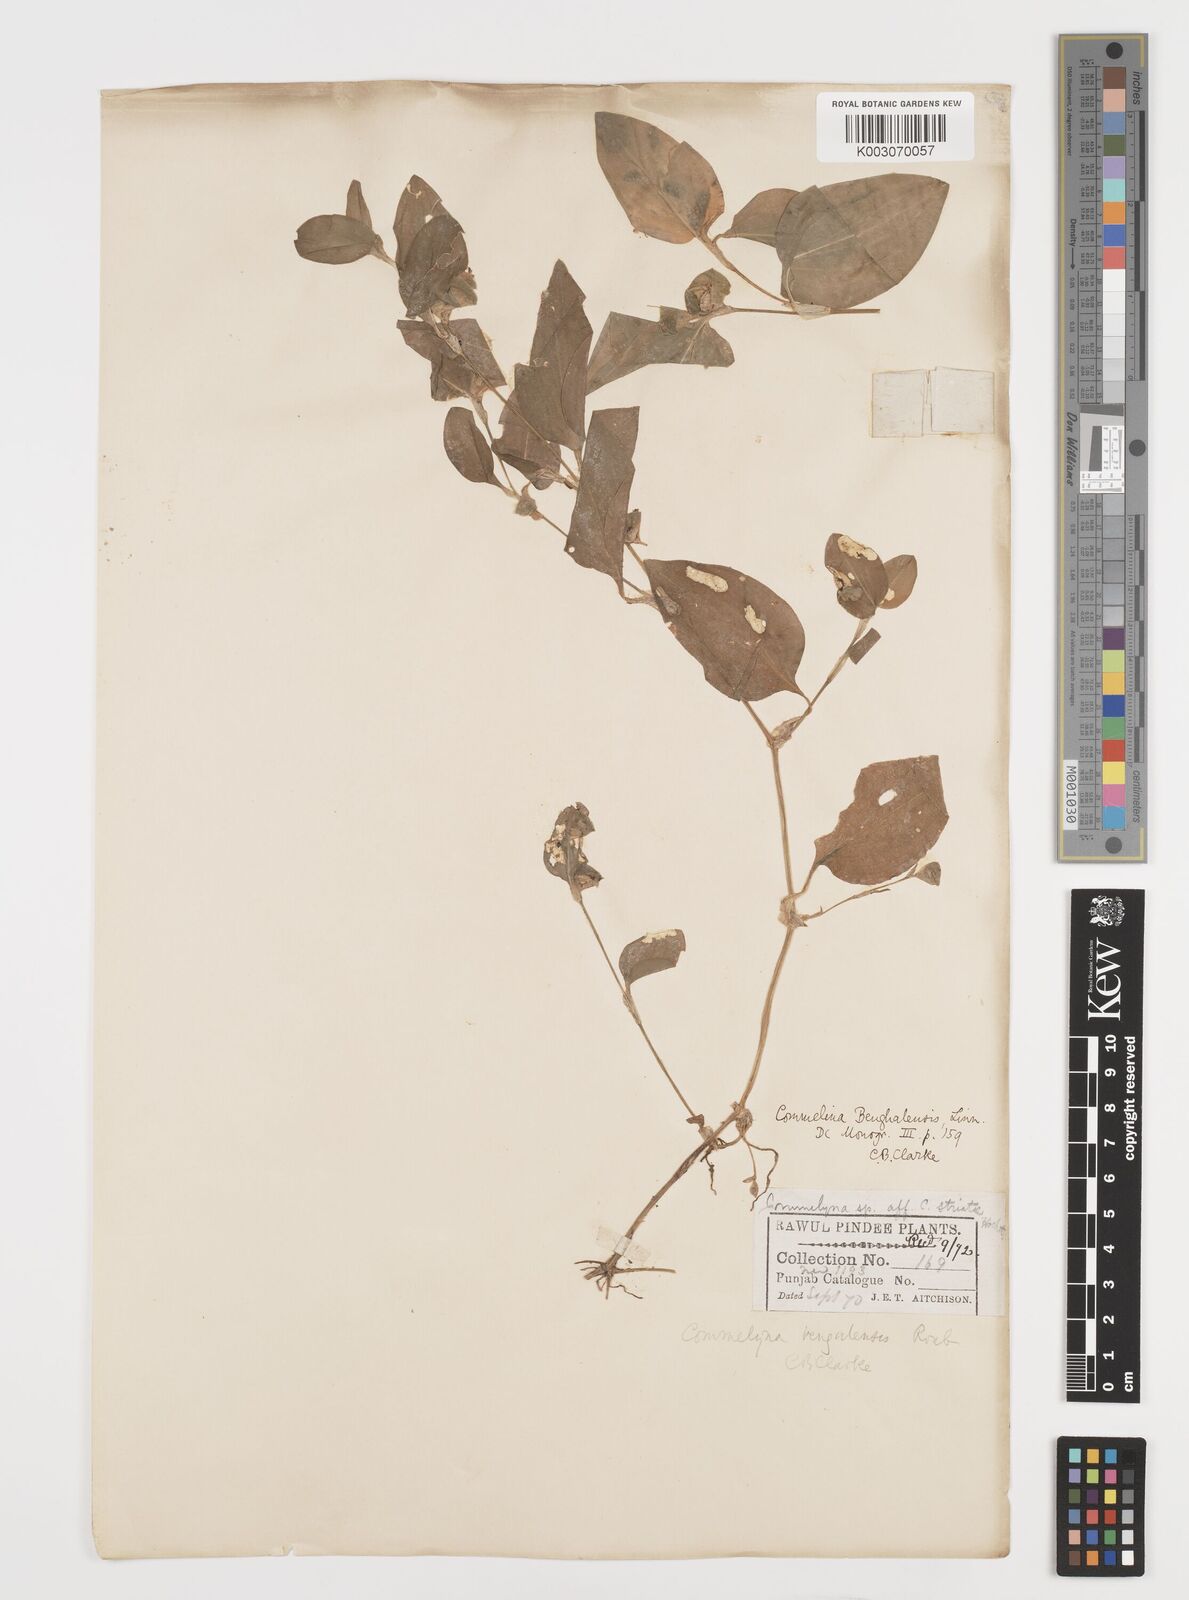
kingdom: Plantae
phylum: Tracheophyta
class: Liliopsida
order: Commelinales
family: Commelinaceae
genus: Commelina
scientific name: Commelina benghalensis
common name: Jio
